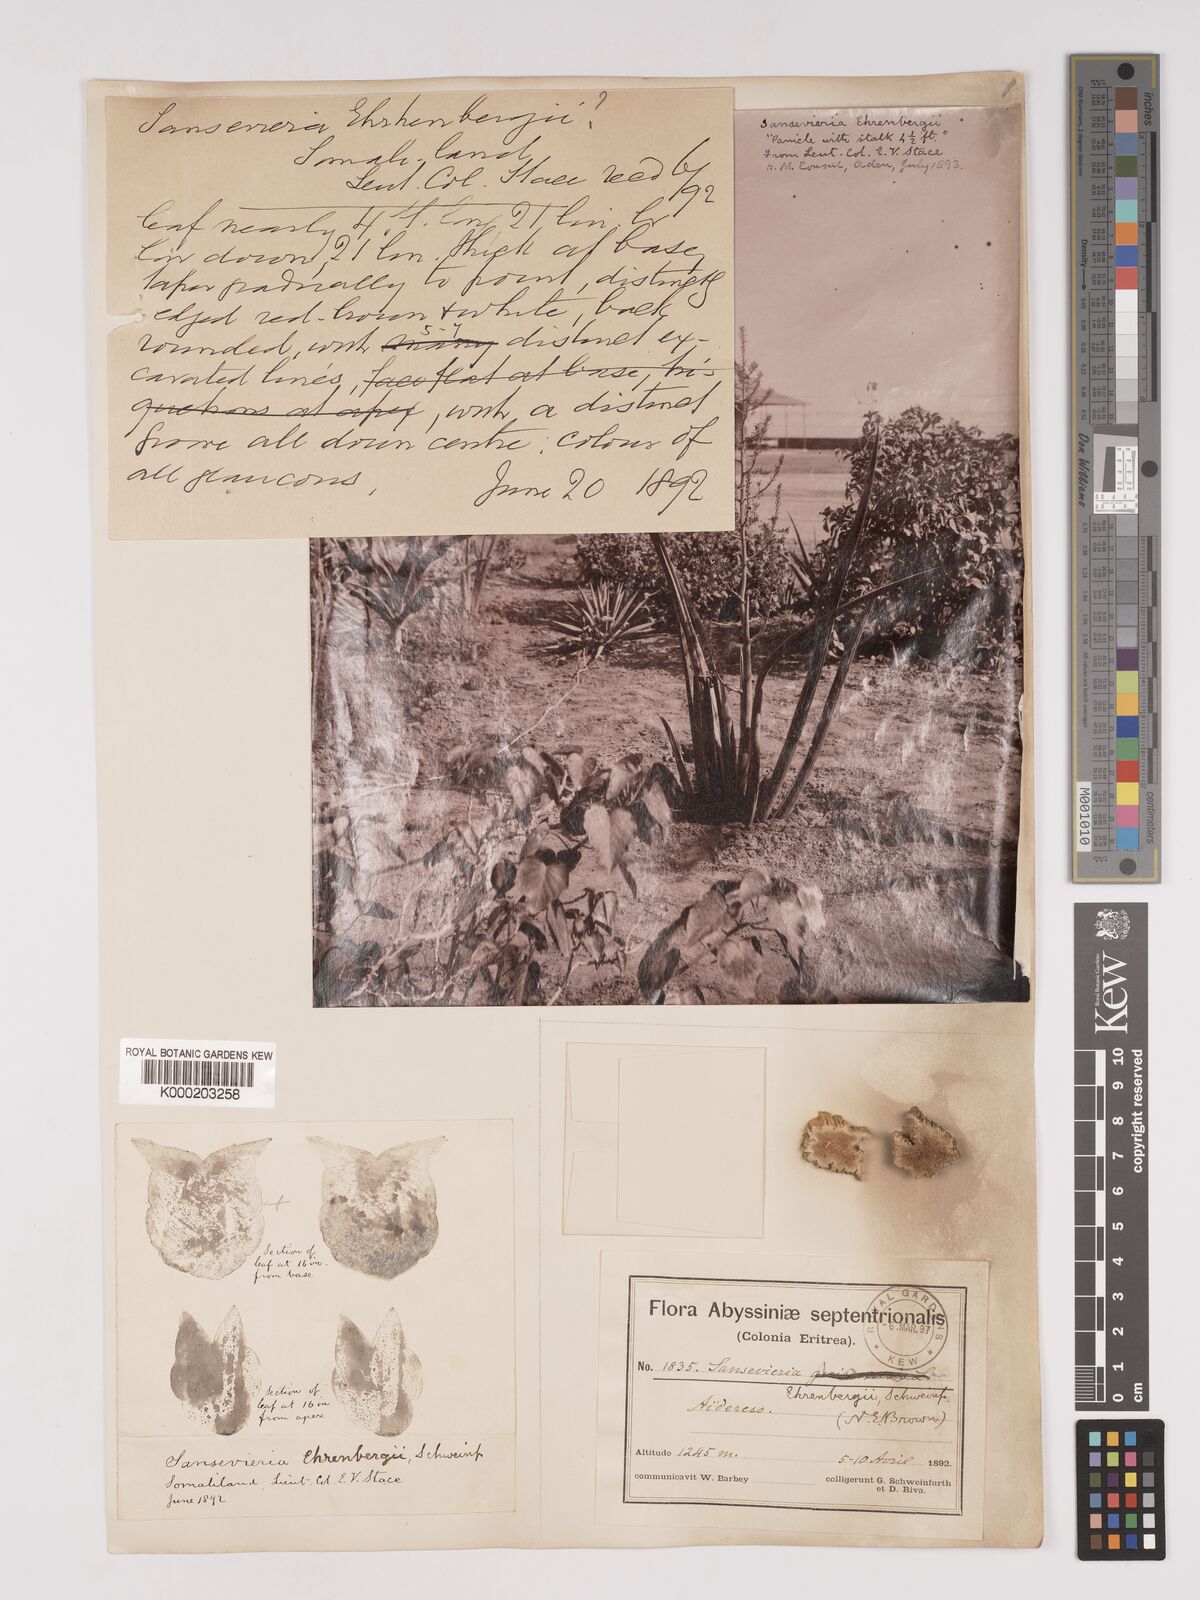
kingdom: Plantae
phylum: Tracheophyta
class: Liliopsida
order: Asparagales
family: Asparagaceae
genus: Dracaena
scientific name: Dracaena hanningtonii
